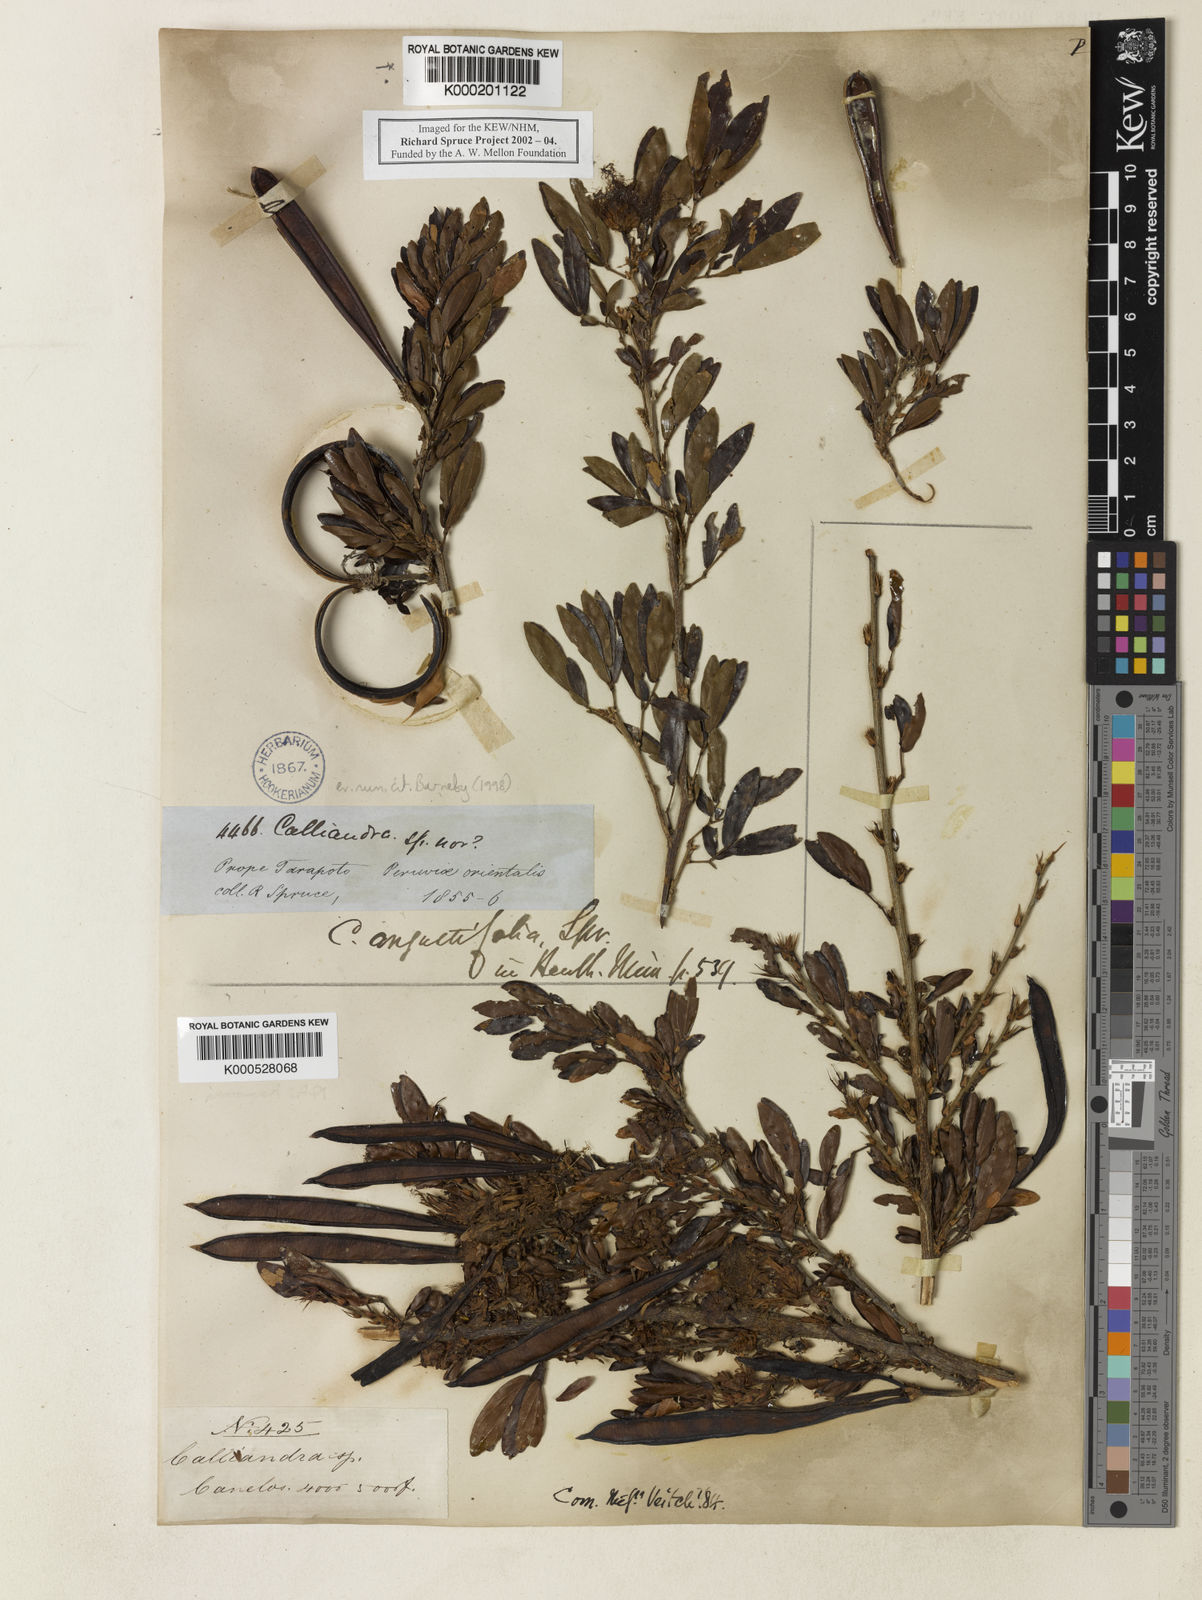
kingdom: Plantae
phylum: Tracheophyta
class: Magnoliopsida
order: Fabales
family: Fabaceae
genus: Calliandra
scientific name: Calliandra angustifolia
